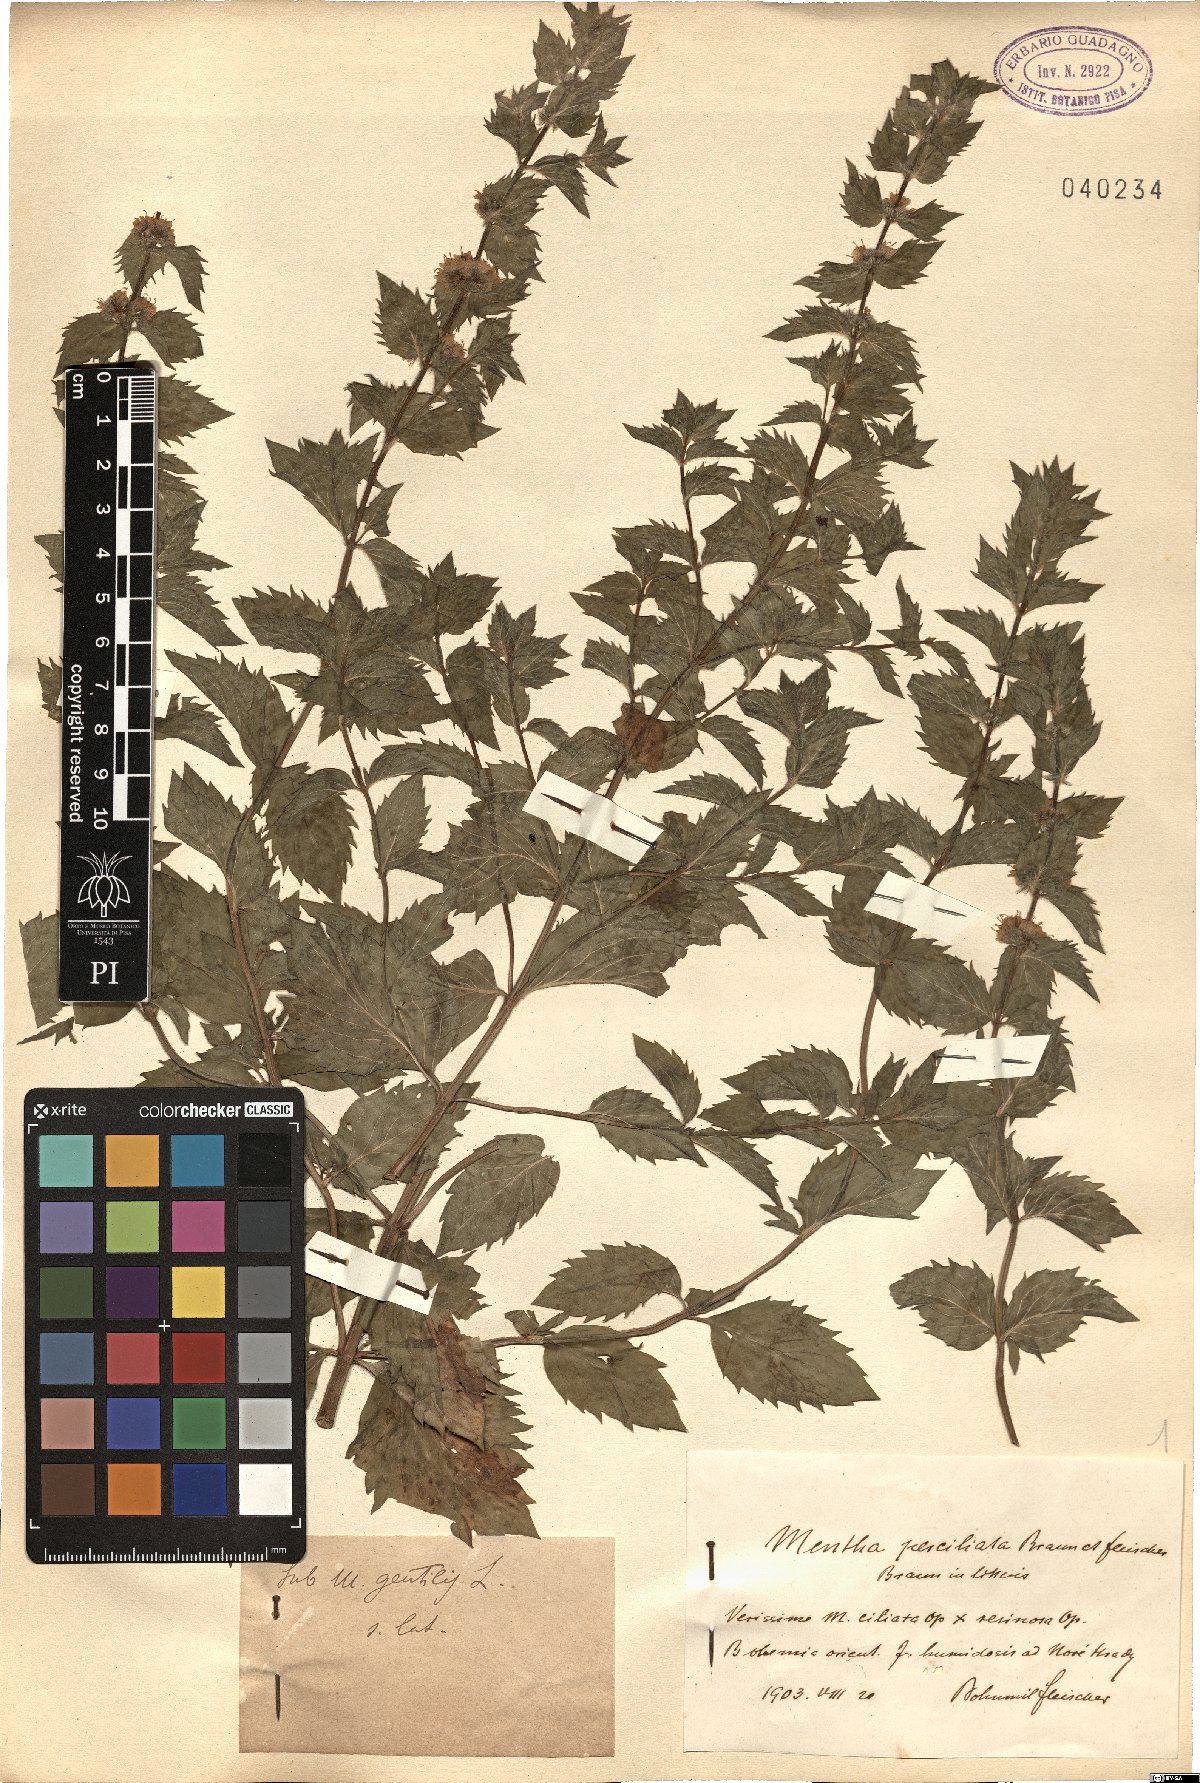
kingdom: Plantae
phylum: Tracheophyta
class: Magnoliopsida
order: Lamiales
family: Lamiaceae
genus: Mentha
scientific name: Mentha arvensis
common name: Corn mint
